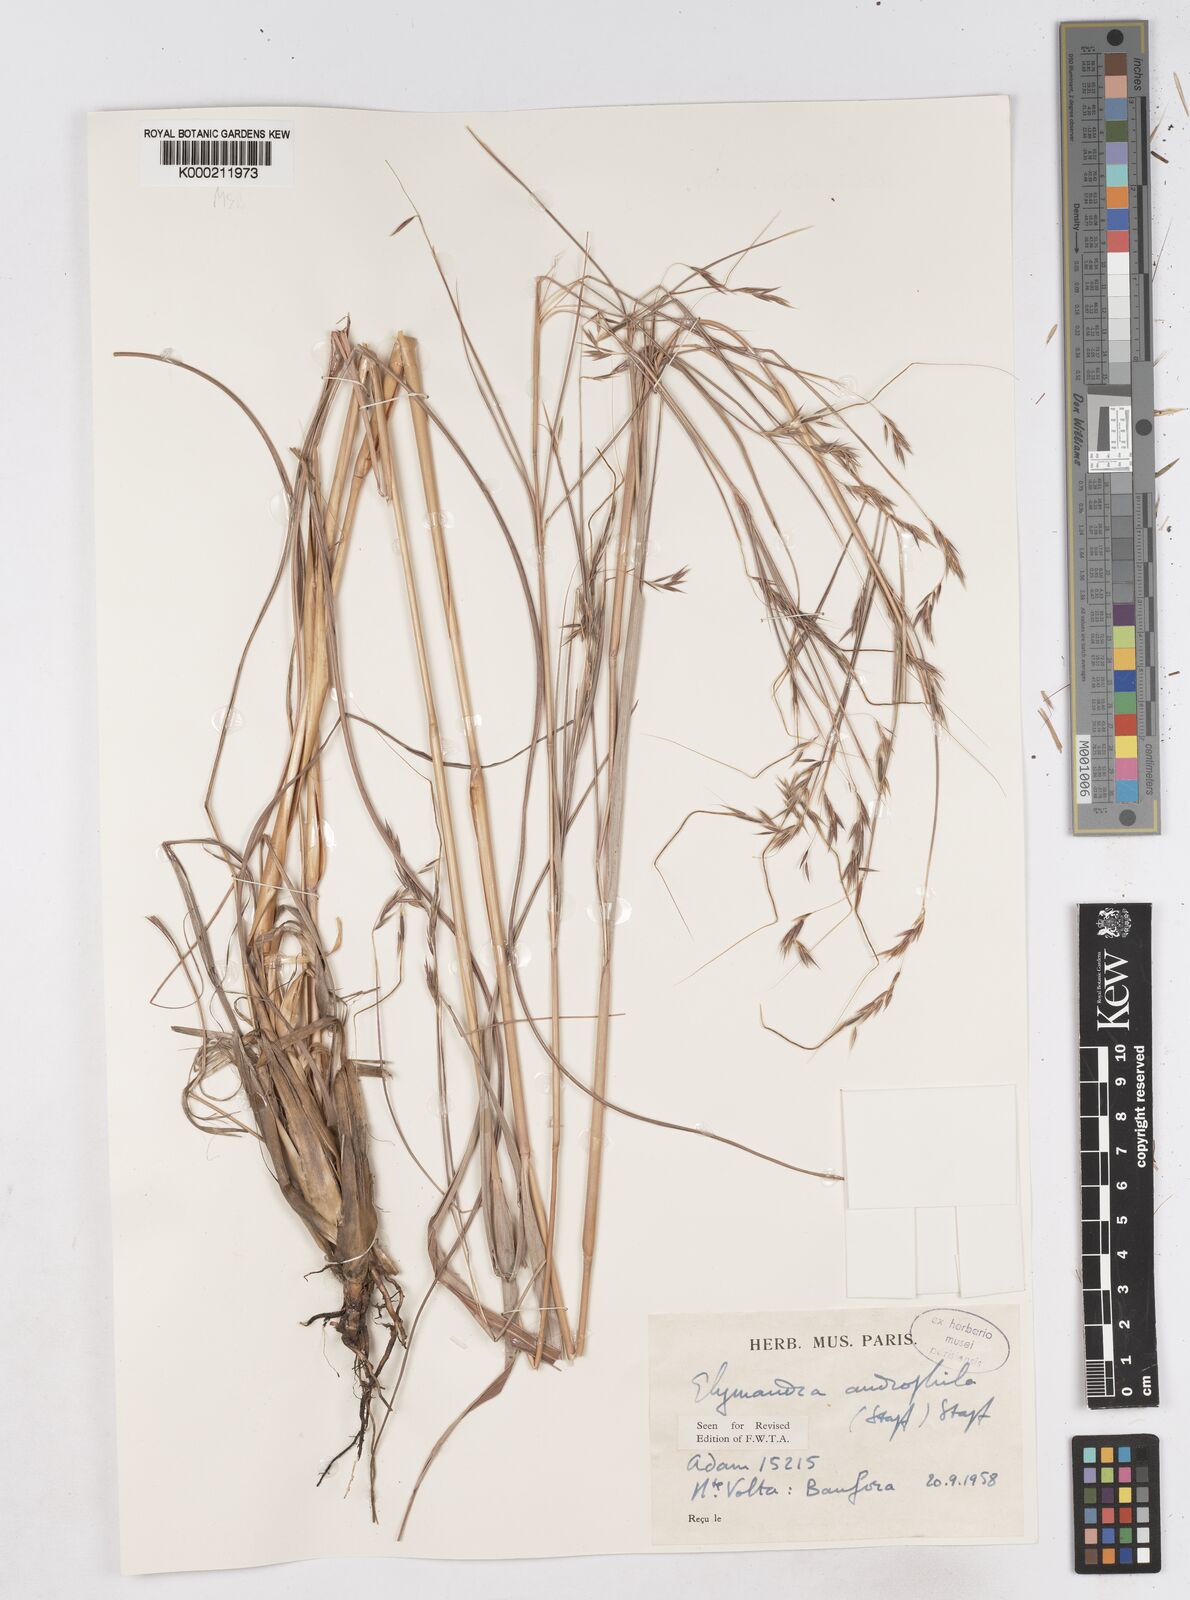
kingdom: Plantae
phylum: Tracheophyta
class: Liliopsida
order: Poales
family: Poaceae
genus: Elymandra
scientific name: Elymandra androphila
